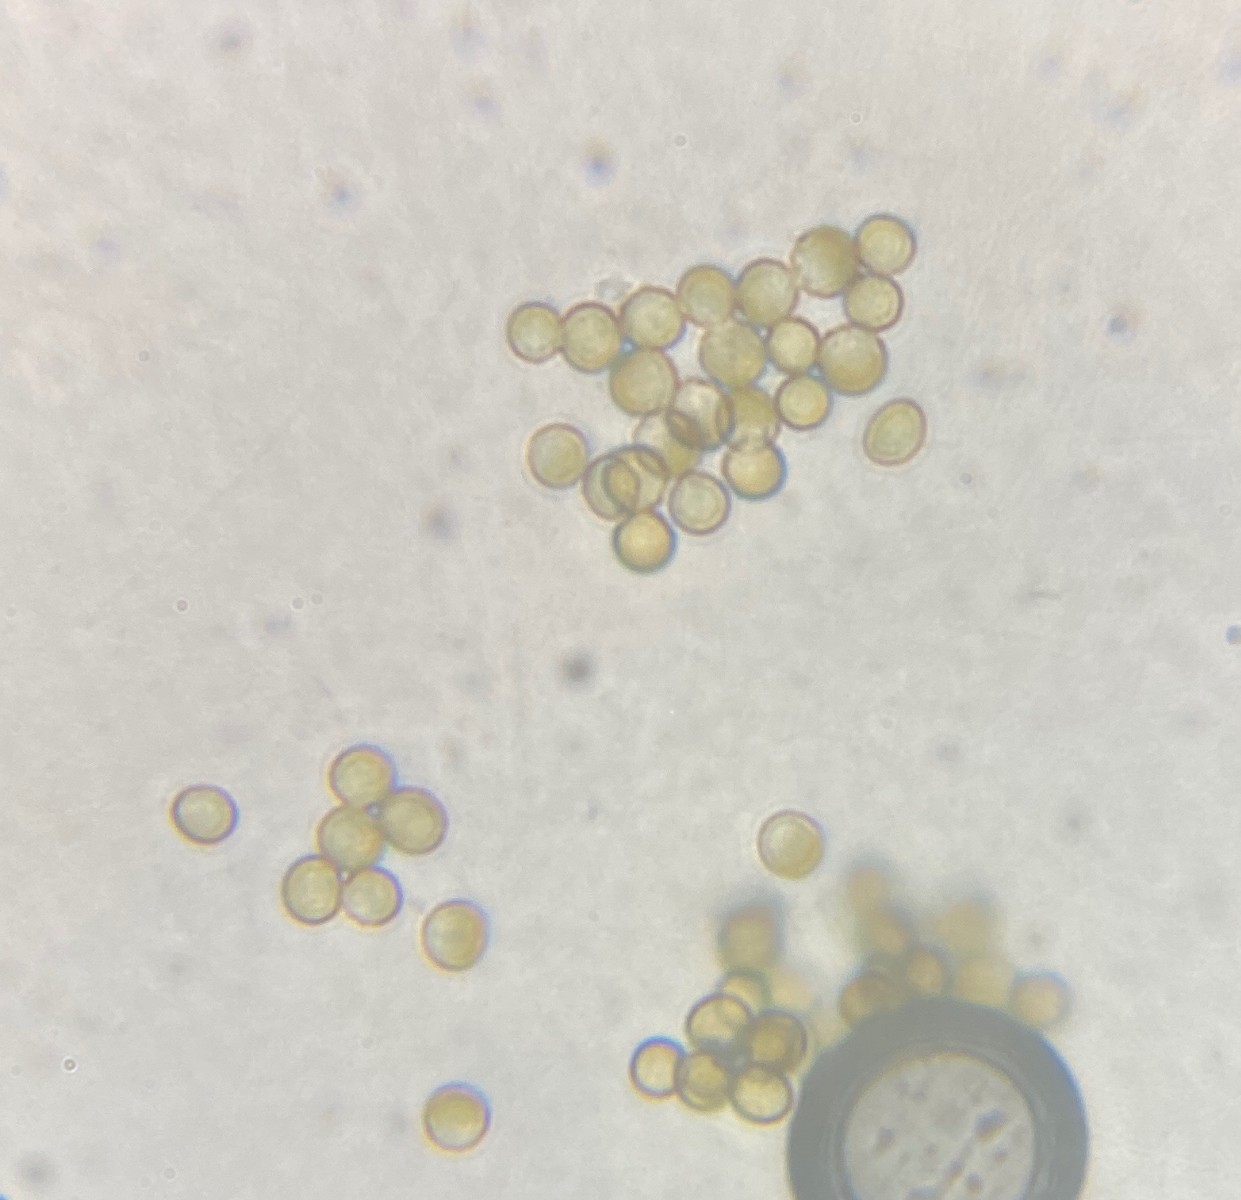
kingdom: Fungi
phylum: Basidiomycota
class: Ustilaginomycetes
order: Ustilaginales
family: Ustilaginaceae
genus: Ustilago
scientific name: Ustilago avenae
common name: Loose smut of oats & oat grass
